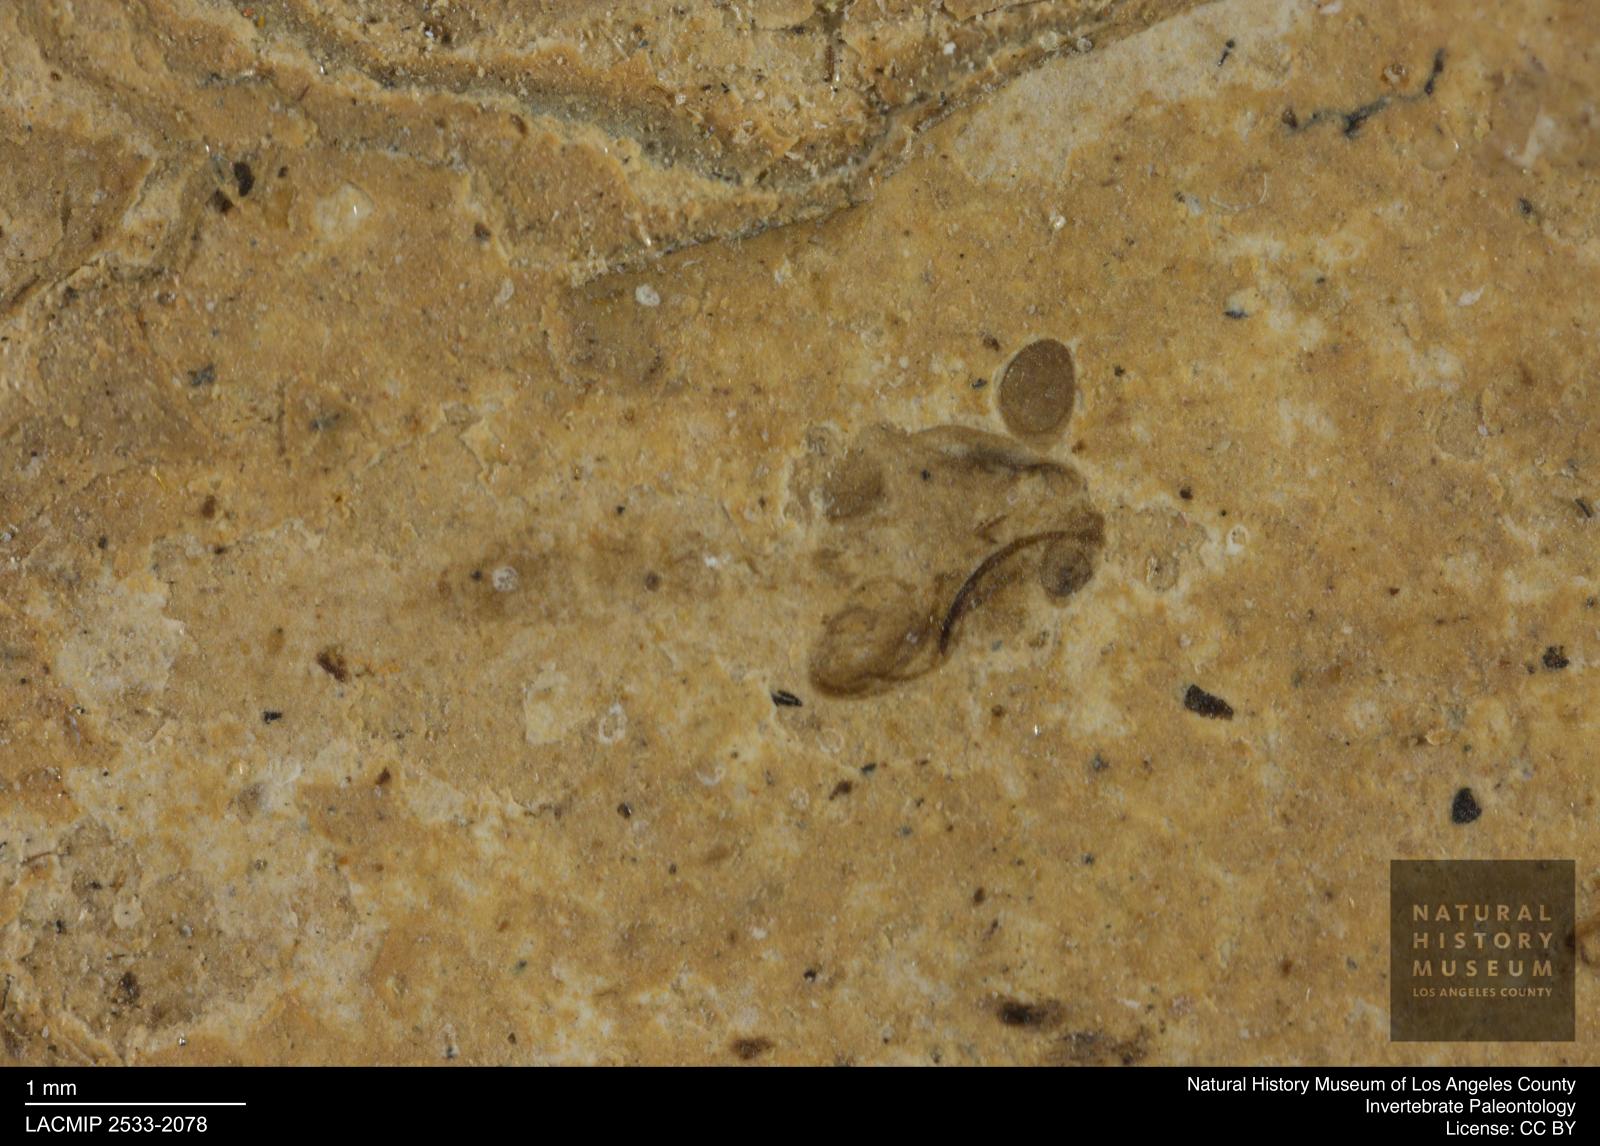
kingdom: Animalia
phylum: Arthropoda
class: Insecta
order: Diptera
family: Chironomidae
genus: Pelopiina
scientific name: Pelopiina
